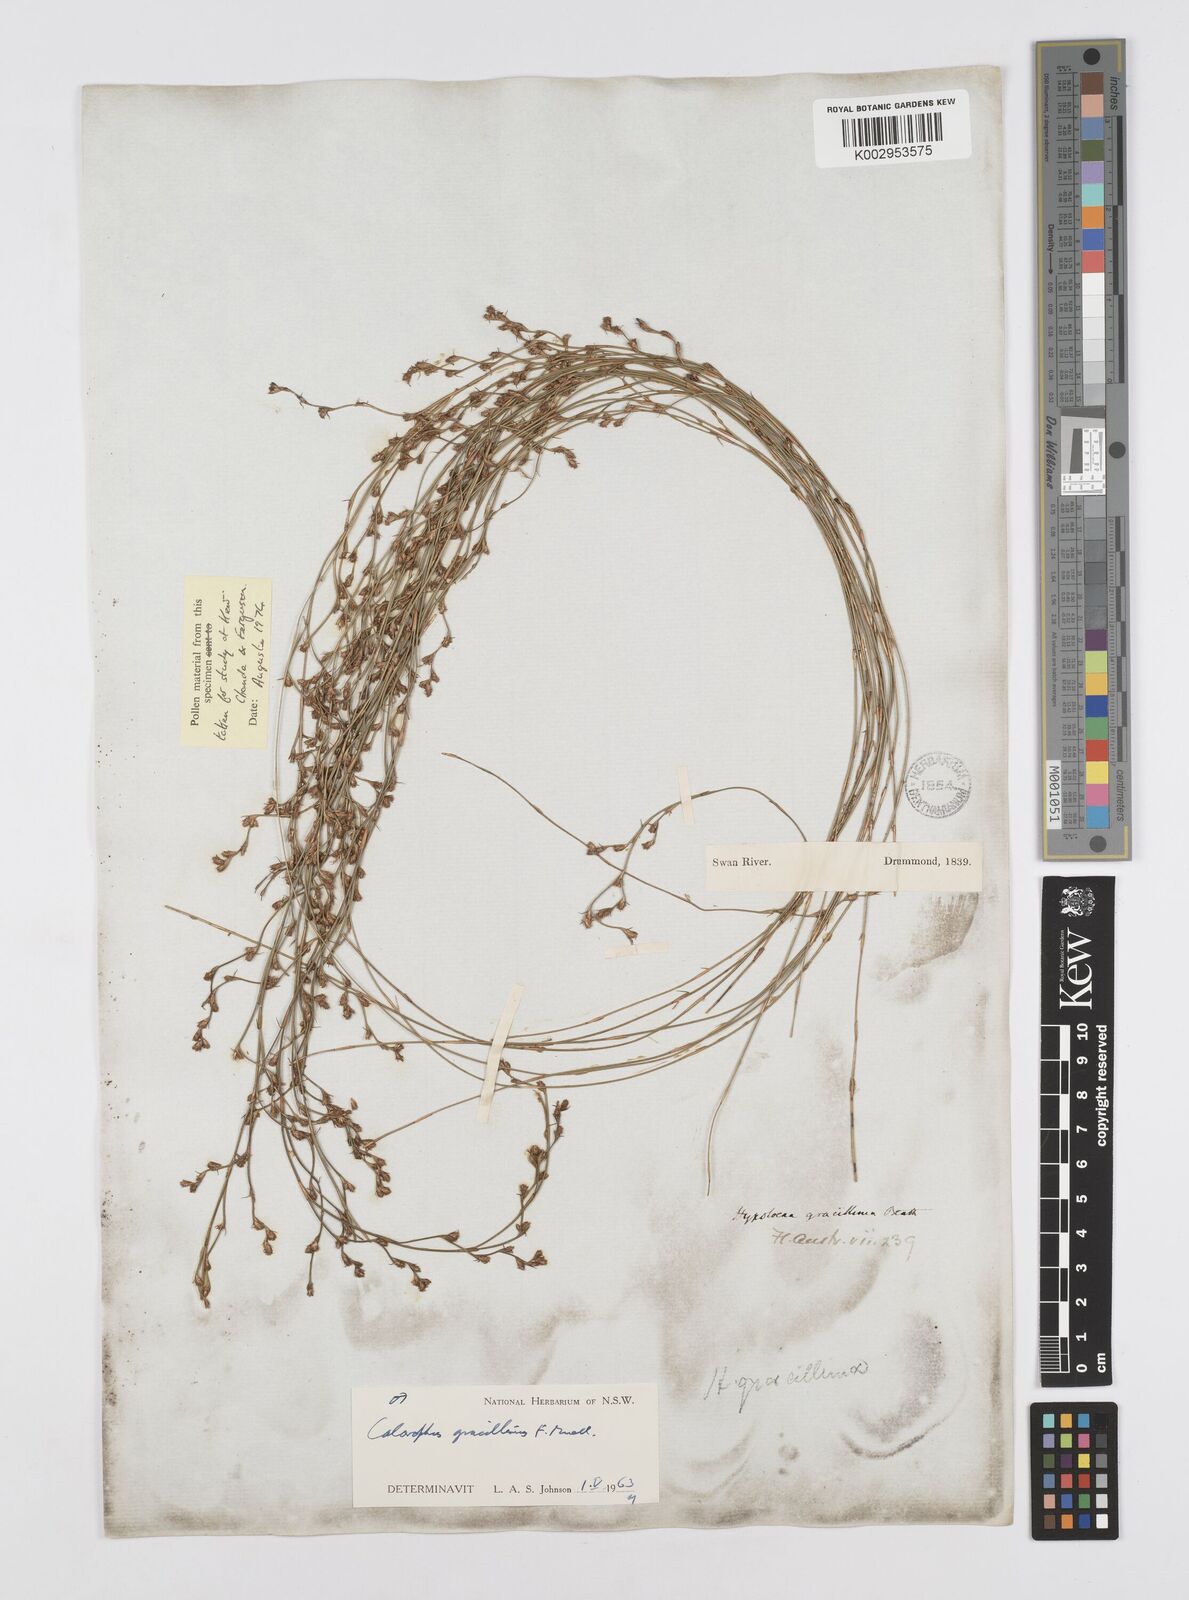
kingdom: Plantae
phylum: Tracheophyta
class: Liliopsida
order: Poales
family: Restionaceae
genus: Empodisma
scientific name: Empodisma gracillimum
